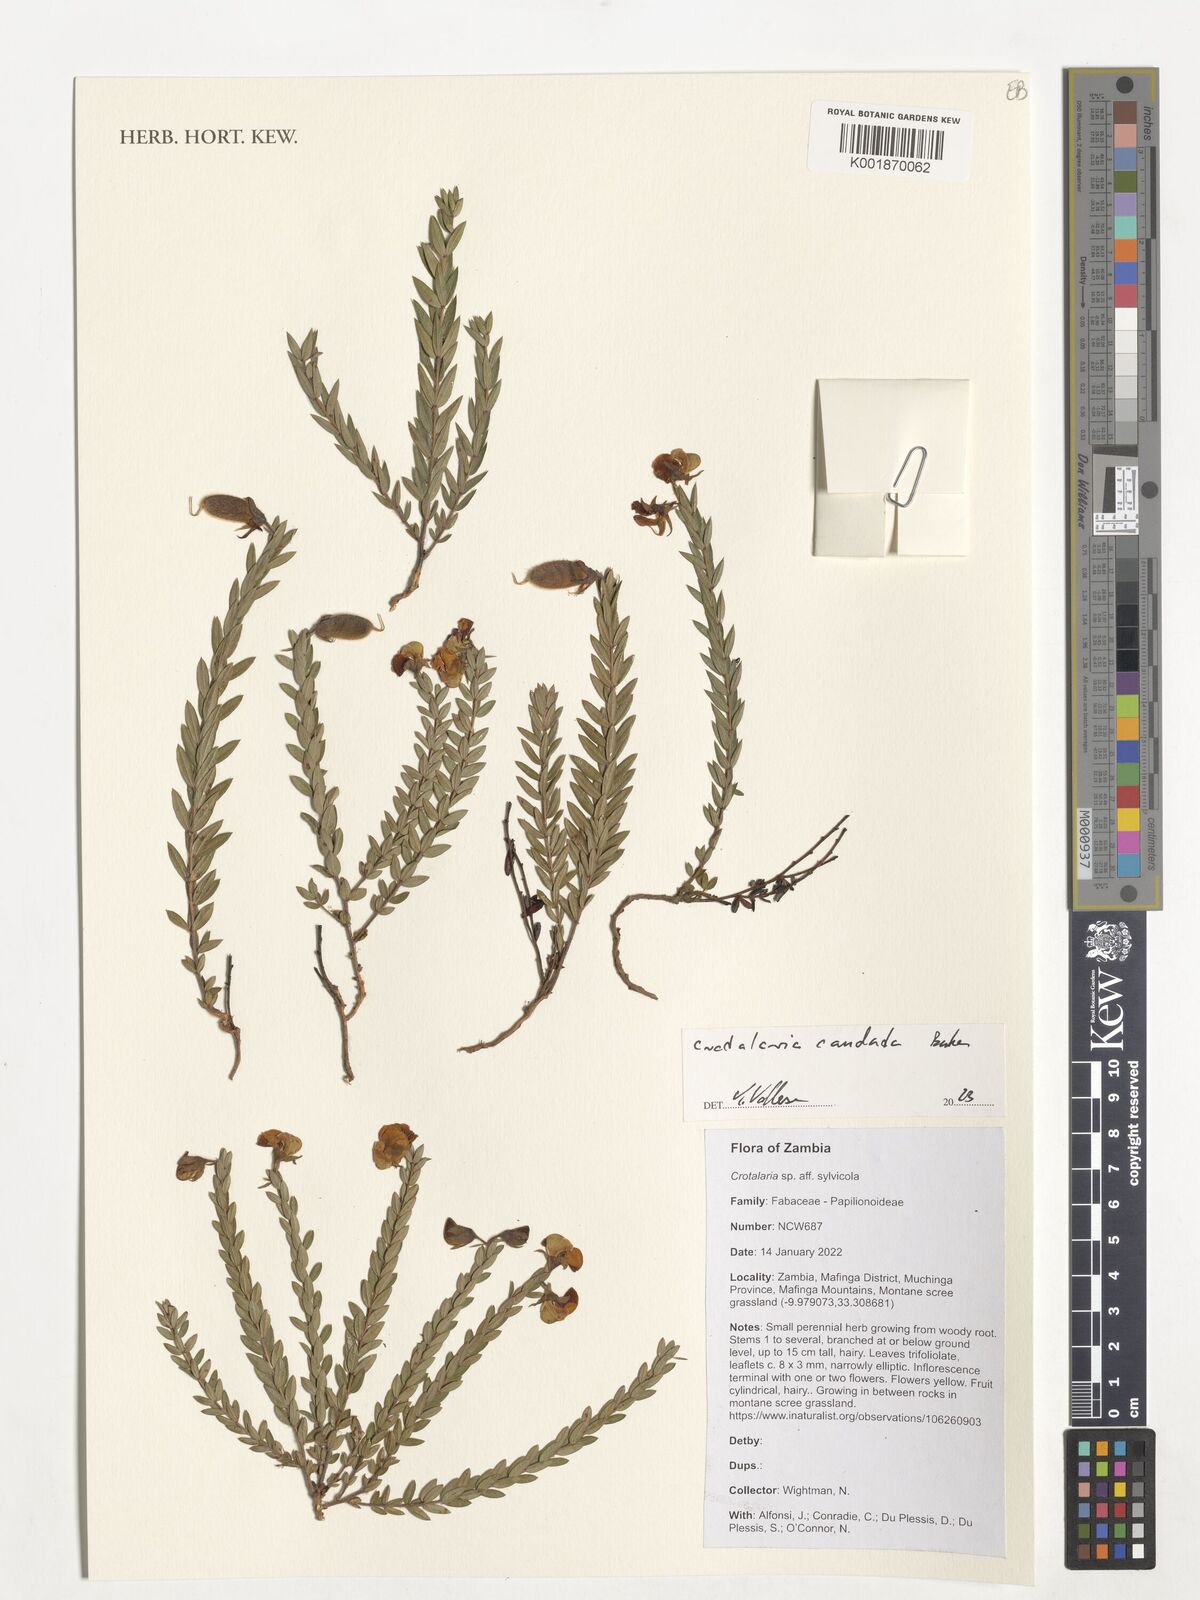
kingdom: Plantae
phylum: Tracheophyta
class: Magnoliopsida
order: Fabales
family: Fabaceae
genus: Crotalaria
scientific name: Crotalaria cordata
